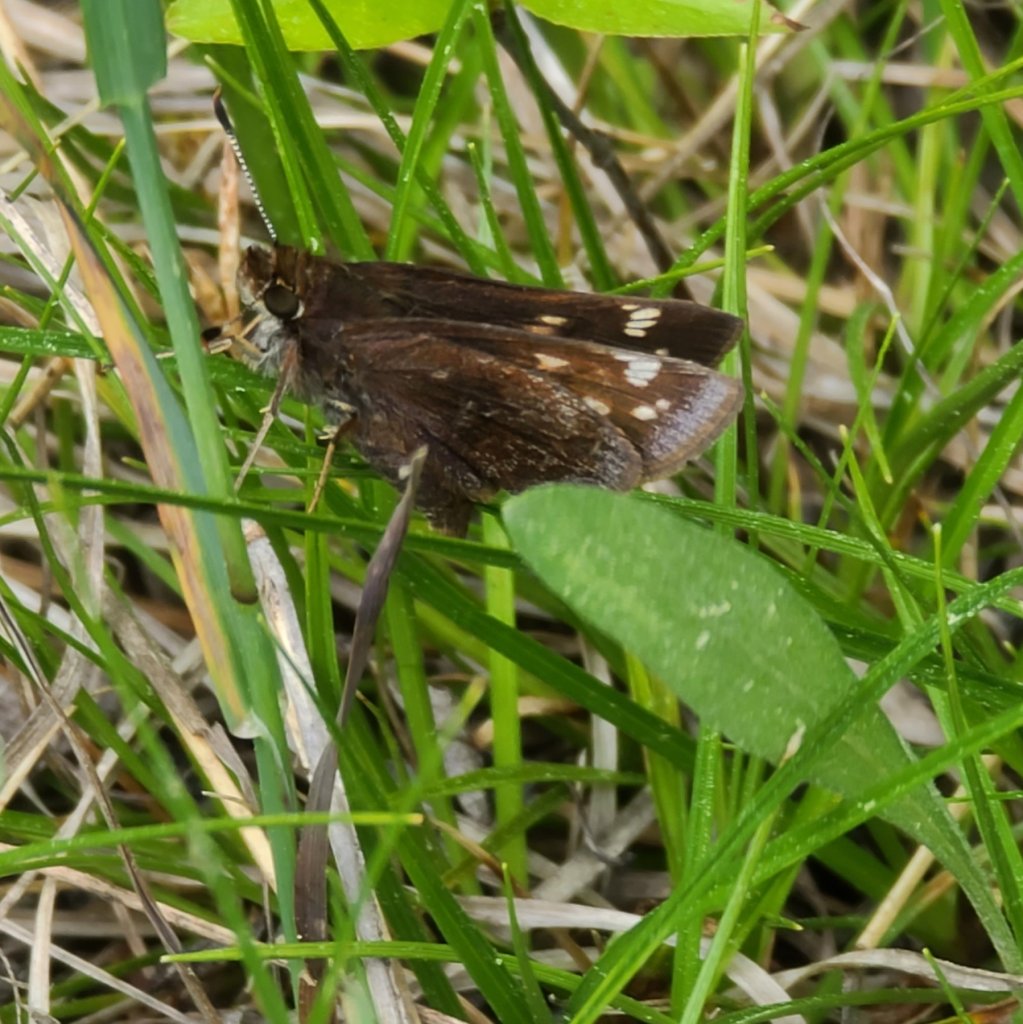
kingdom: Animalia
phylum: Arthropoda
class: Insecta
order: Lepidoptera
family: Hesperiidae
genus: Lon
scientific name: Lon hobomok
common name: Hobomok Skipper
